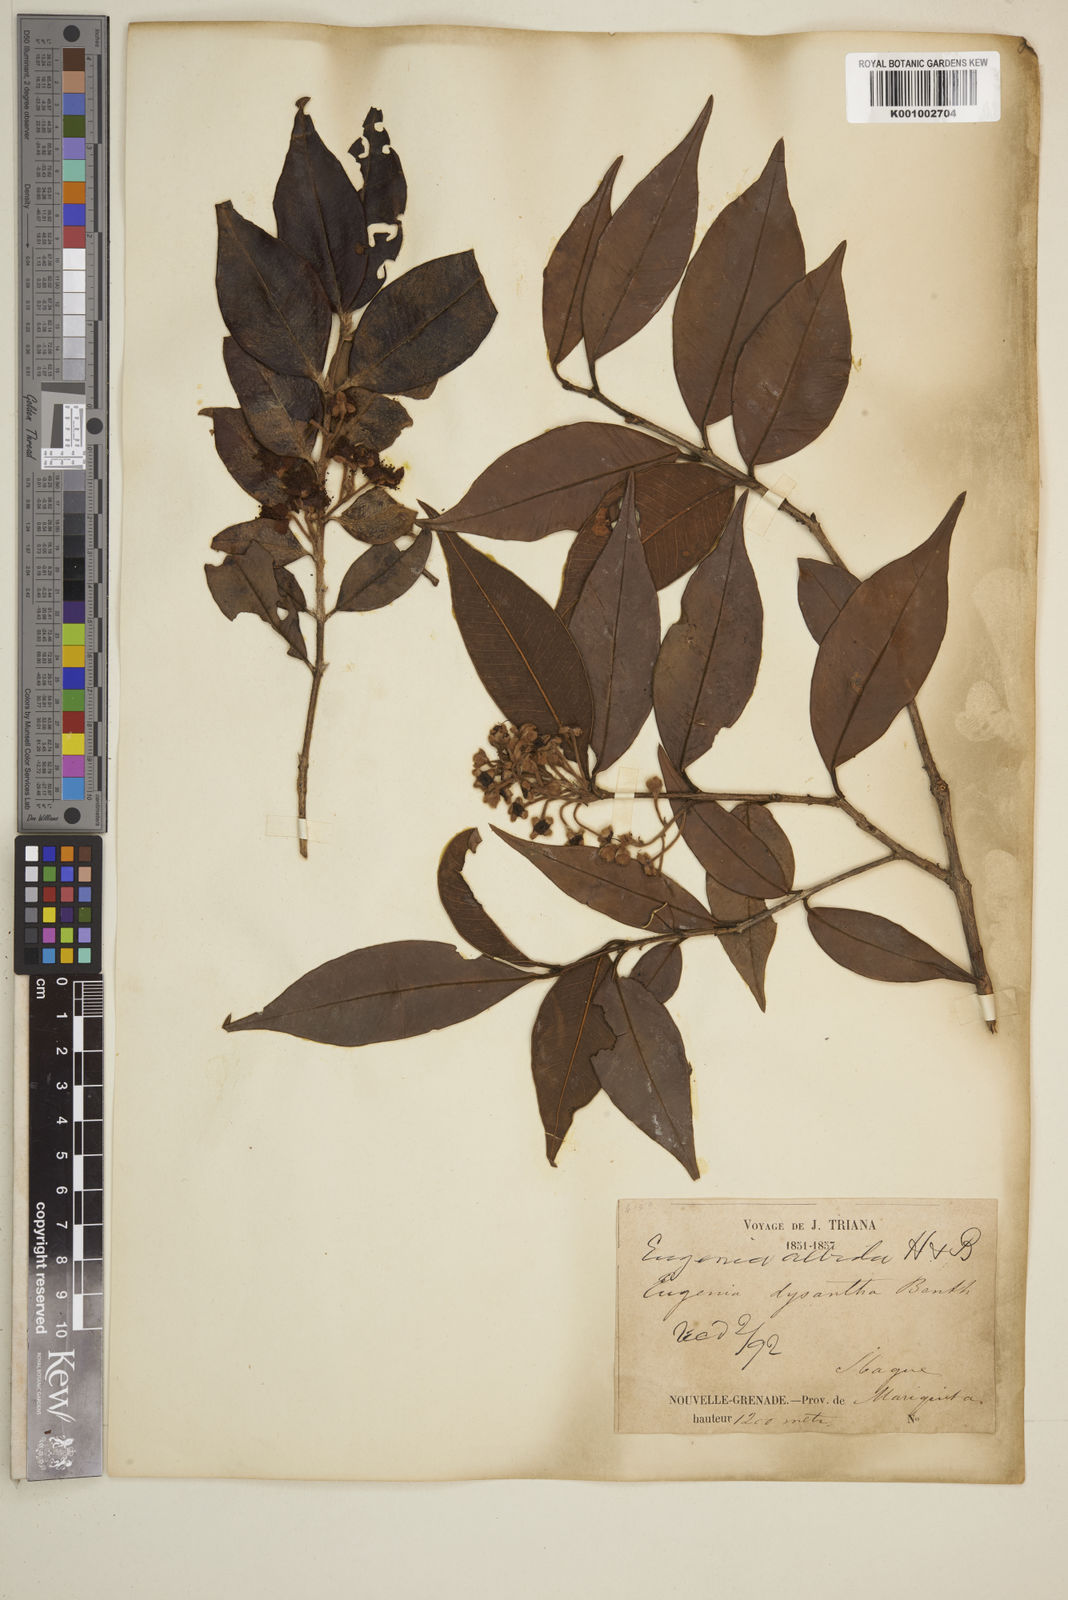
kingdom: Plantae
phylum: Tracheophyta
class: Magnoliopsida
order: Myrtales
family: Myrtaceae
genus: Eugenia
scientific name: Eugenia albida
